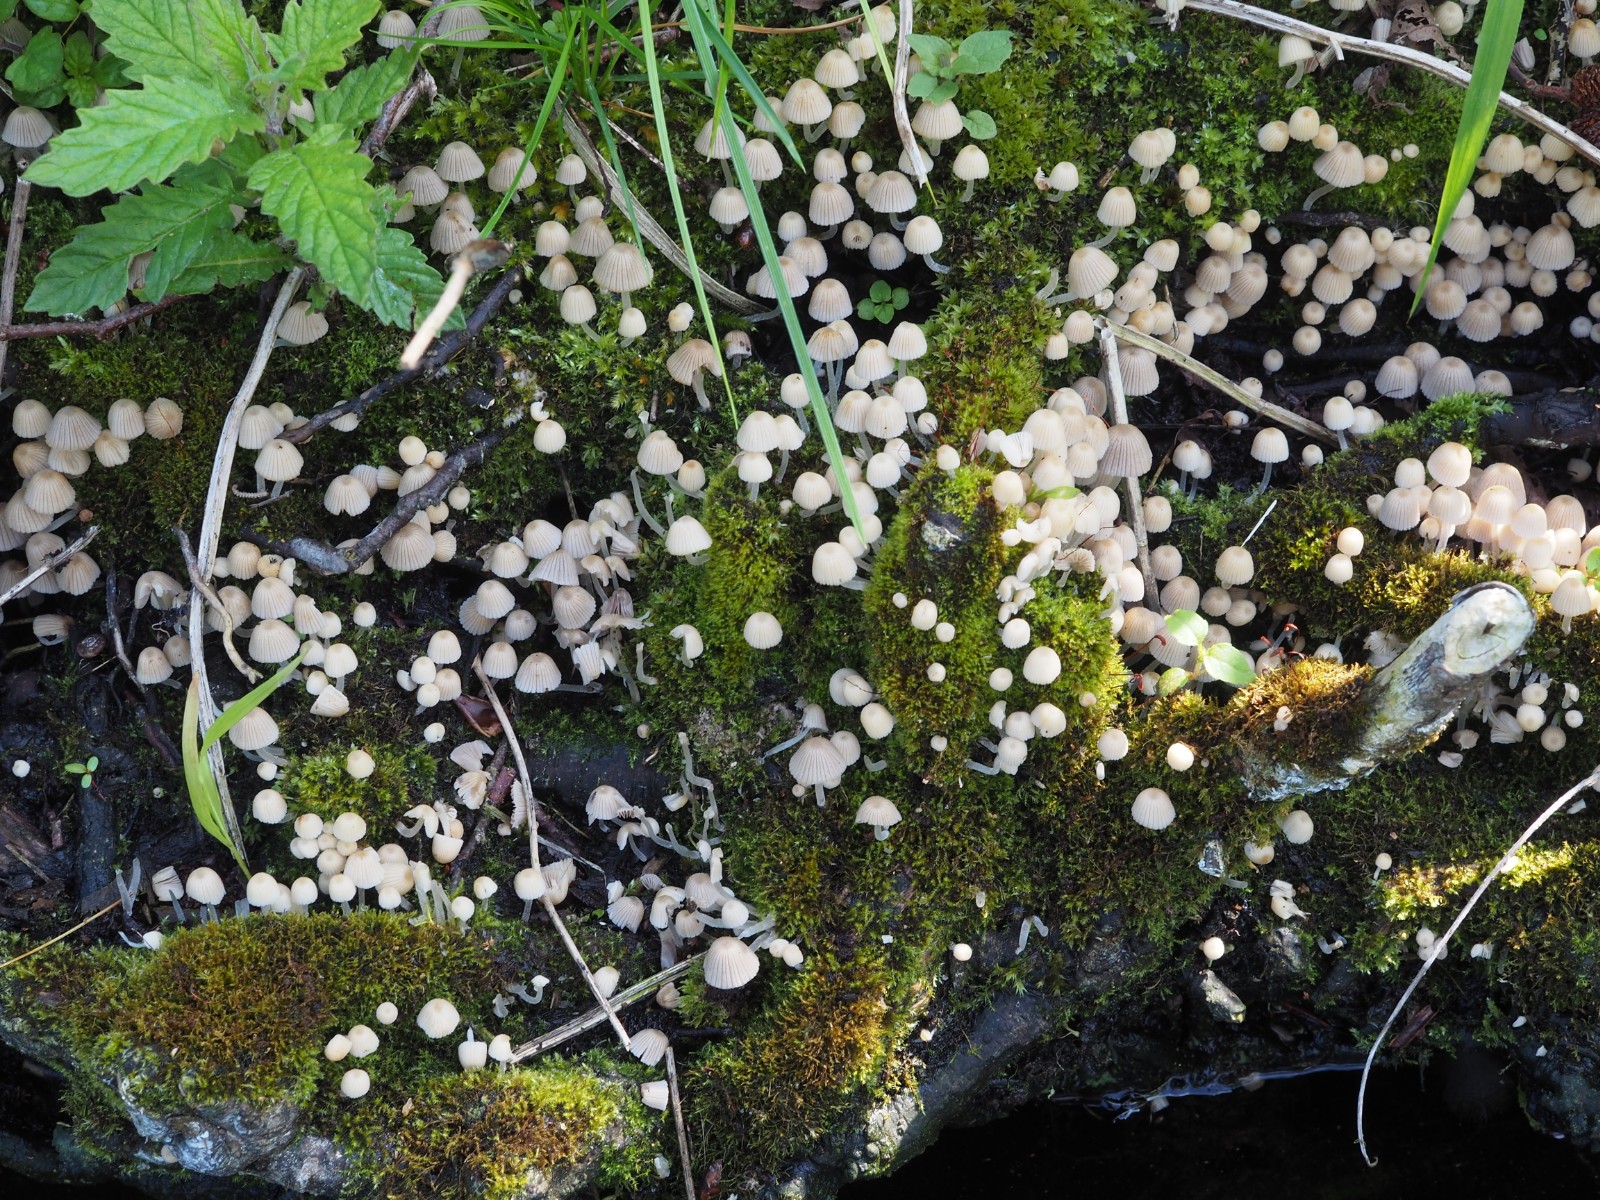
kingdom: Fungi
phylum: Basidiomycota
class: Agaricomycetes
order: Agaricales
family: Psathyrellaceae
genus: Coprinellus
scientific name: Coprinellus disseminatus
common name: bredsået blækhat
